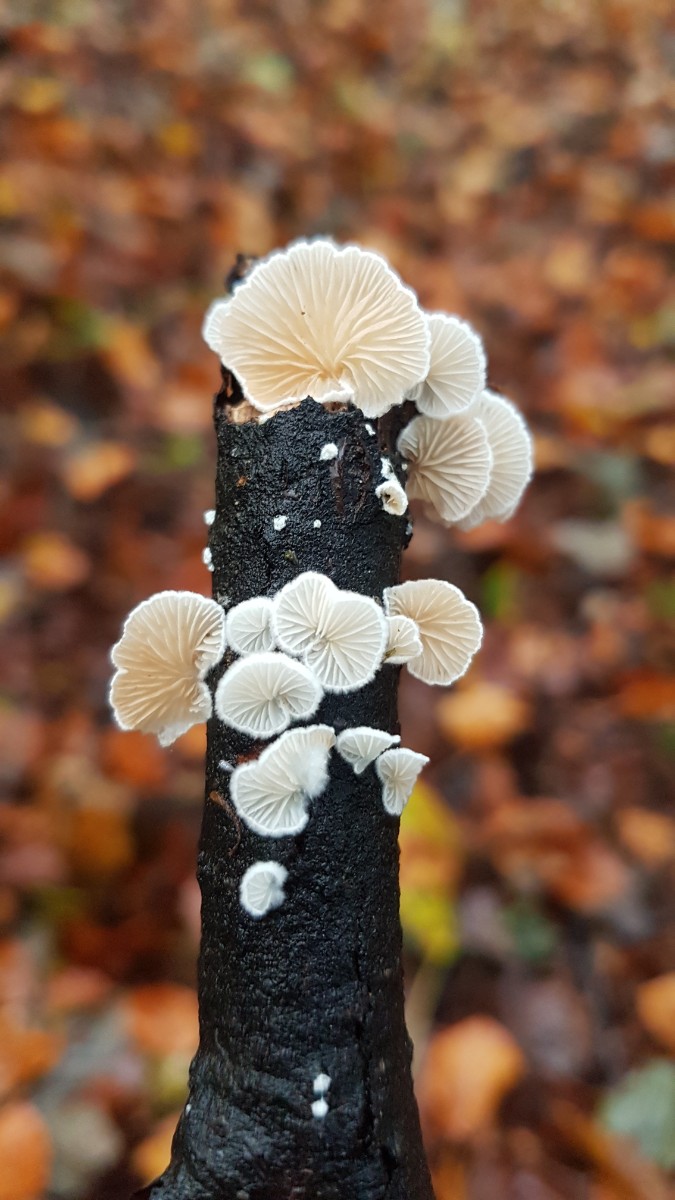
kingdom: Fungi
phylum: Basidiomycota
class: Agaricomycetes
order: Agaricales
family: Crepidotaceae
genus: Crepidotus
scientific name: Crepidotus
